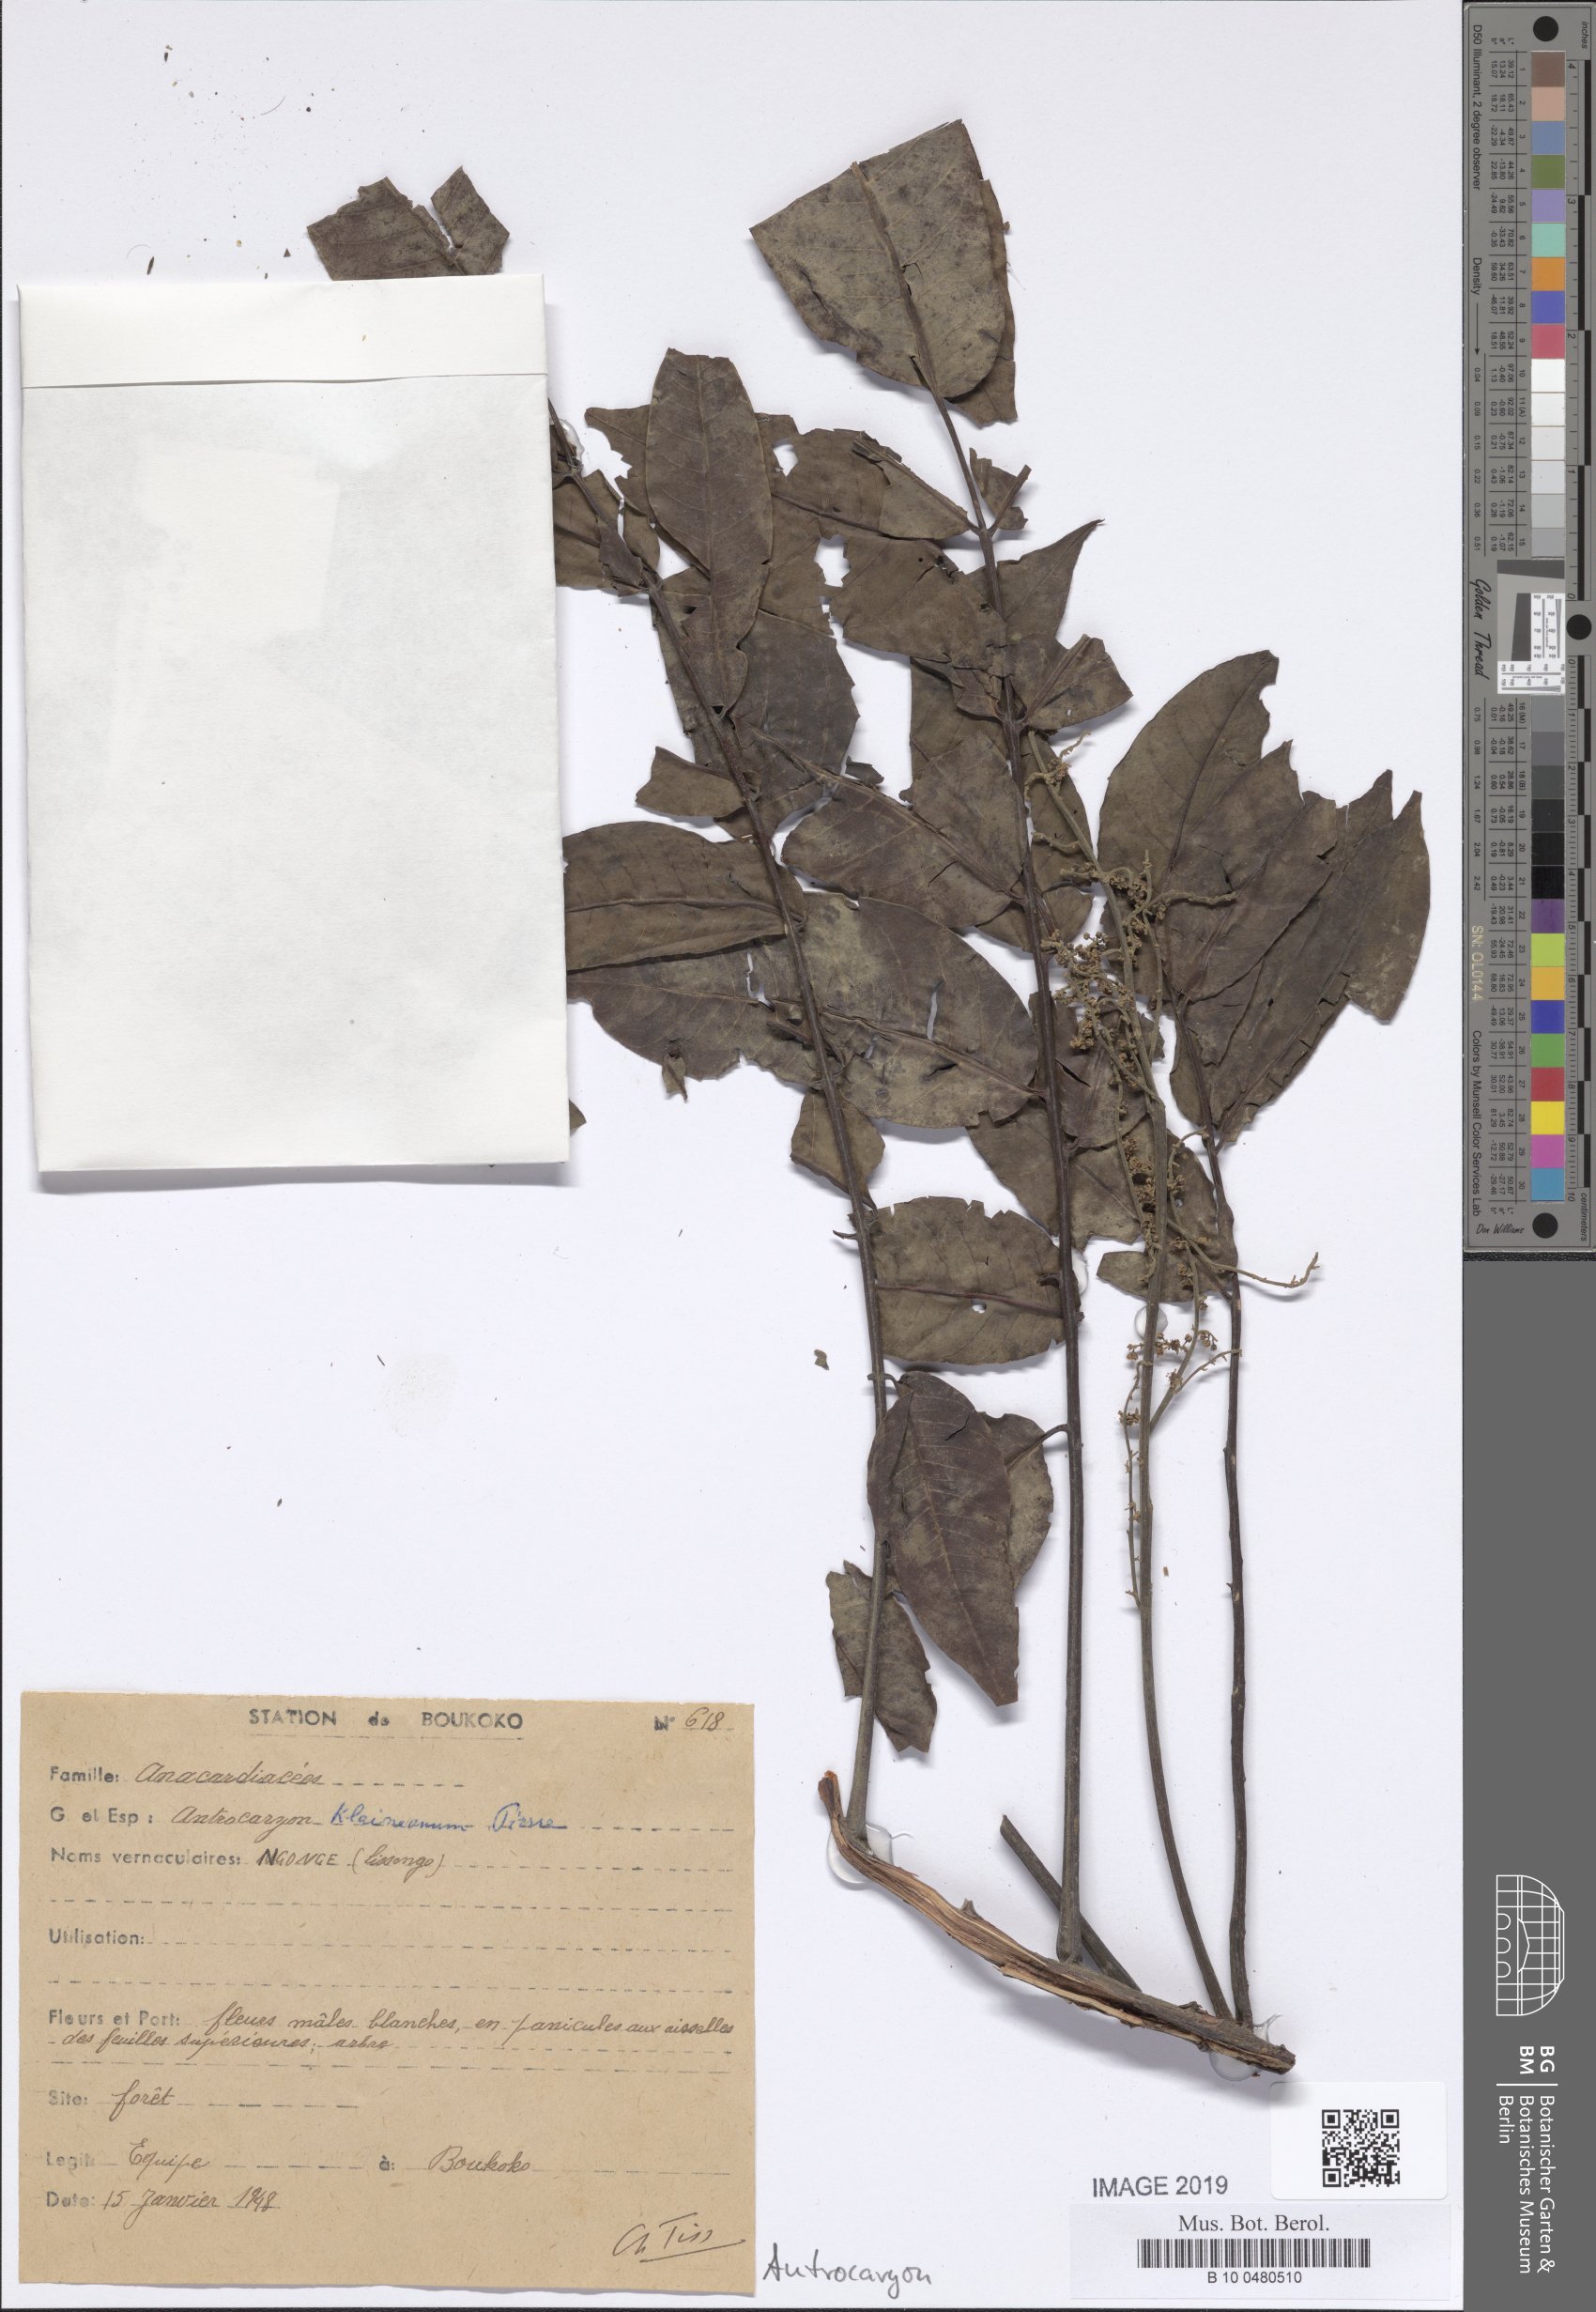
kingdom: Plantae
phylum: Tracheophyta
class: Magnoliopsida
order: Sapindales
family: Anacardiaceae
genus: Antrocaryon
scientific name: Antrocaryon klaineanum
